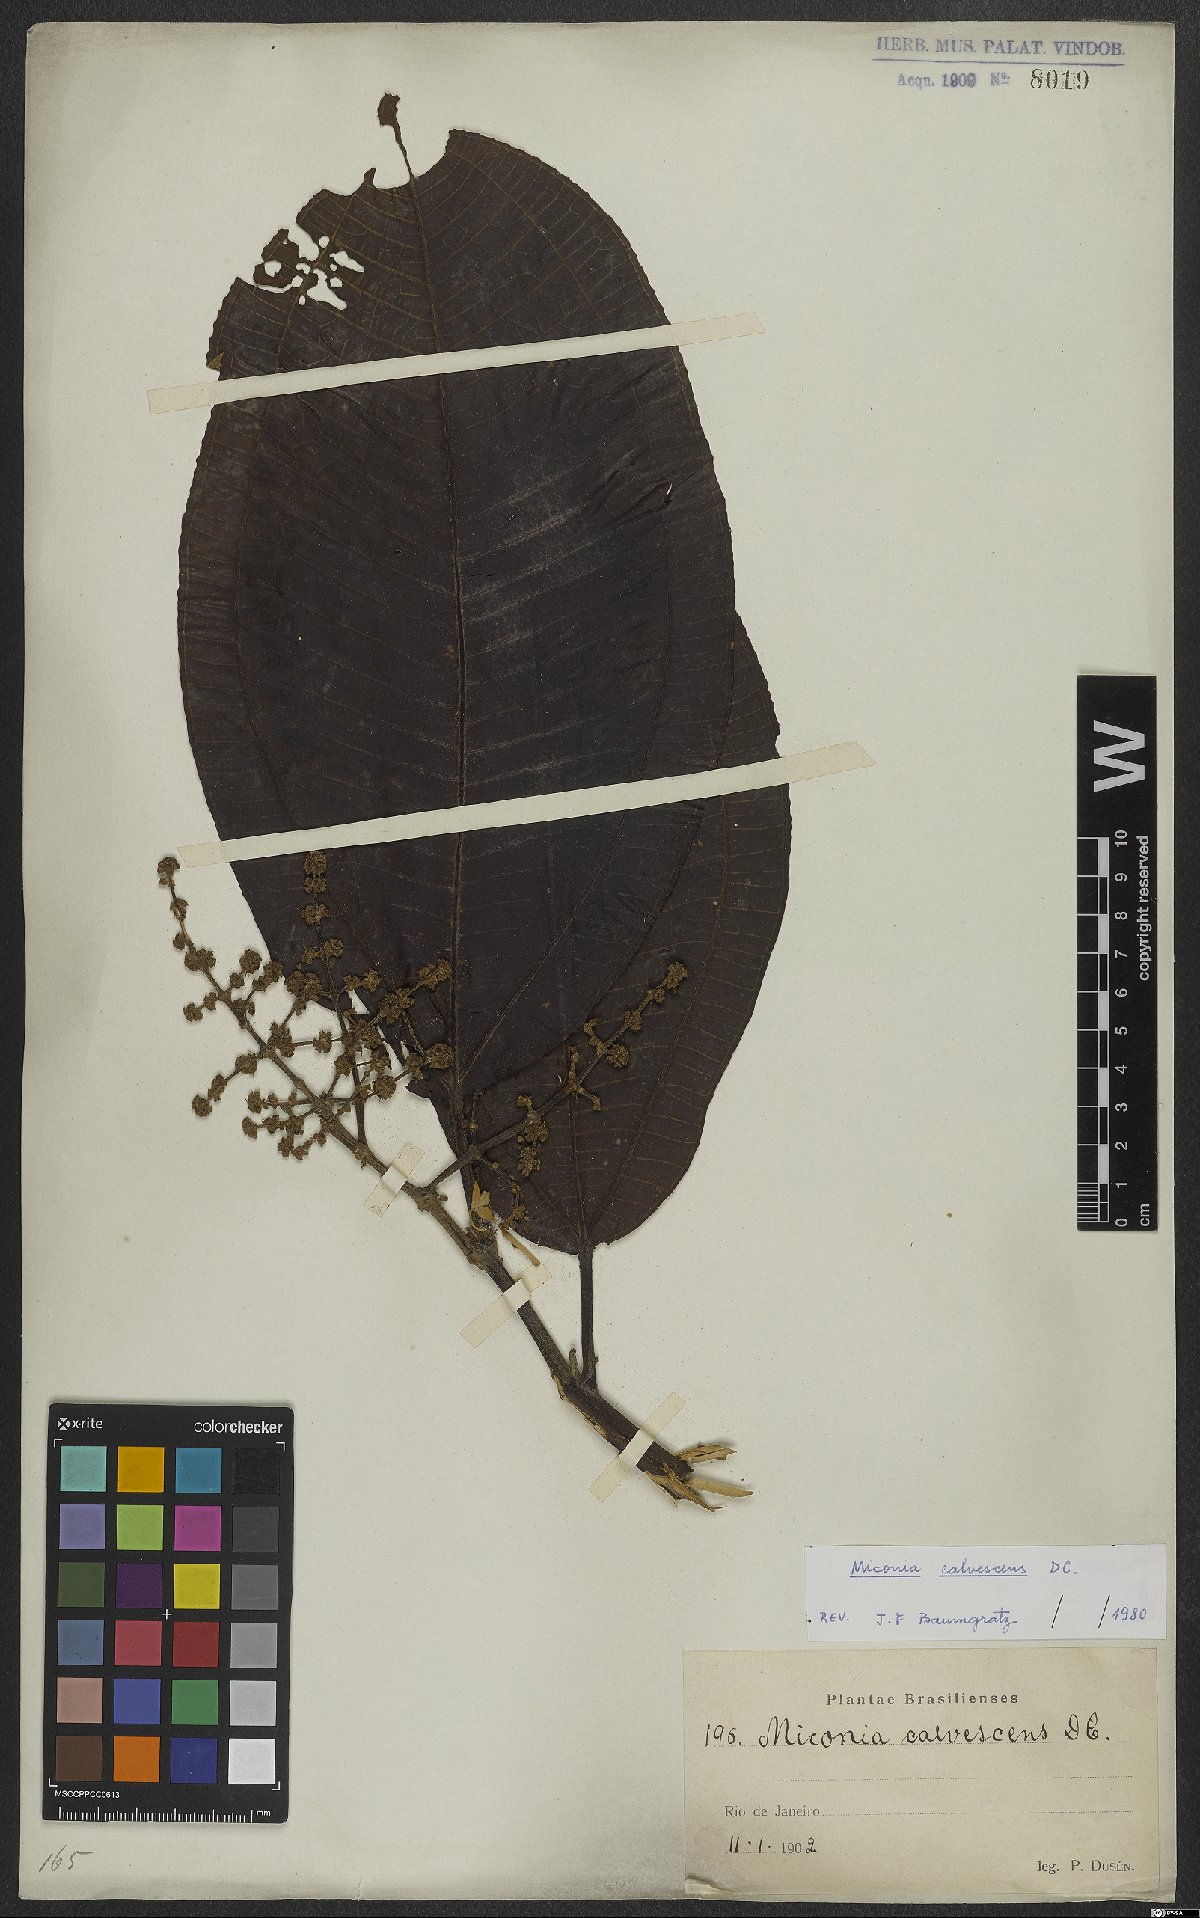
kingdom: Plantae
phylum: Tracheophyta
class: Magnoliopsida
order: Myrtales
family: Melastomataceae
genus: Miconia
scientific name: Miconia calvescens
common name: Purple plague
